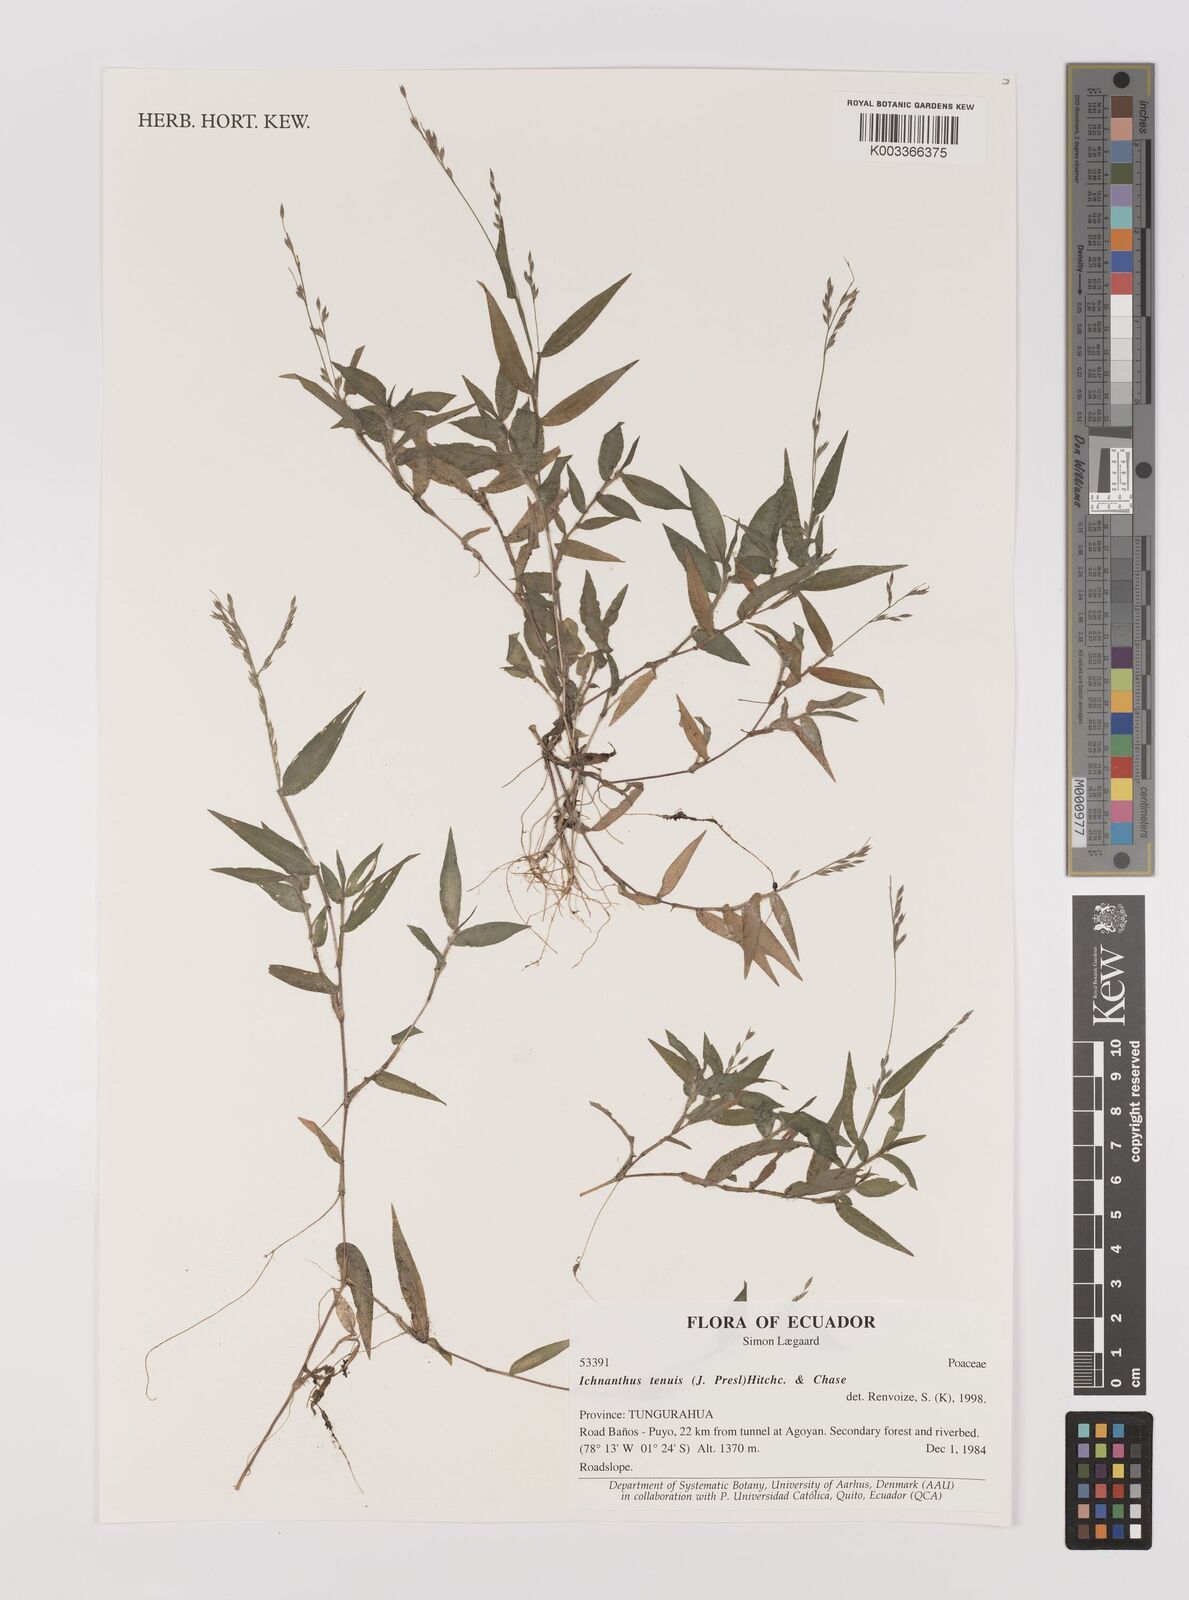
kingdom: Plantae
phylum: Tracheophyta
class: Liliopsida
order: Poales
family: Poaceae
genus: Ichnanthus
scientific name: Ichnanthus tenuis
